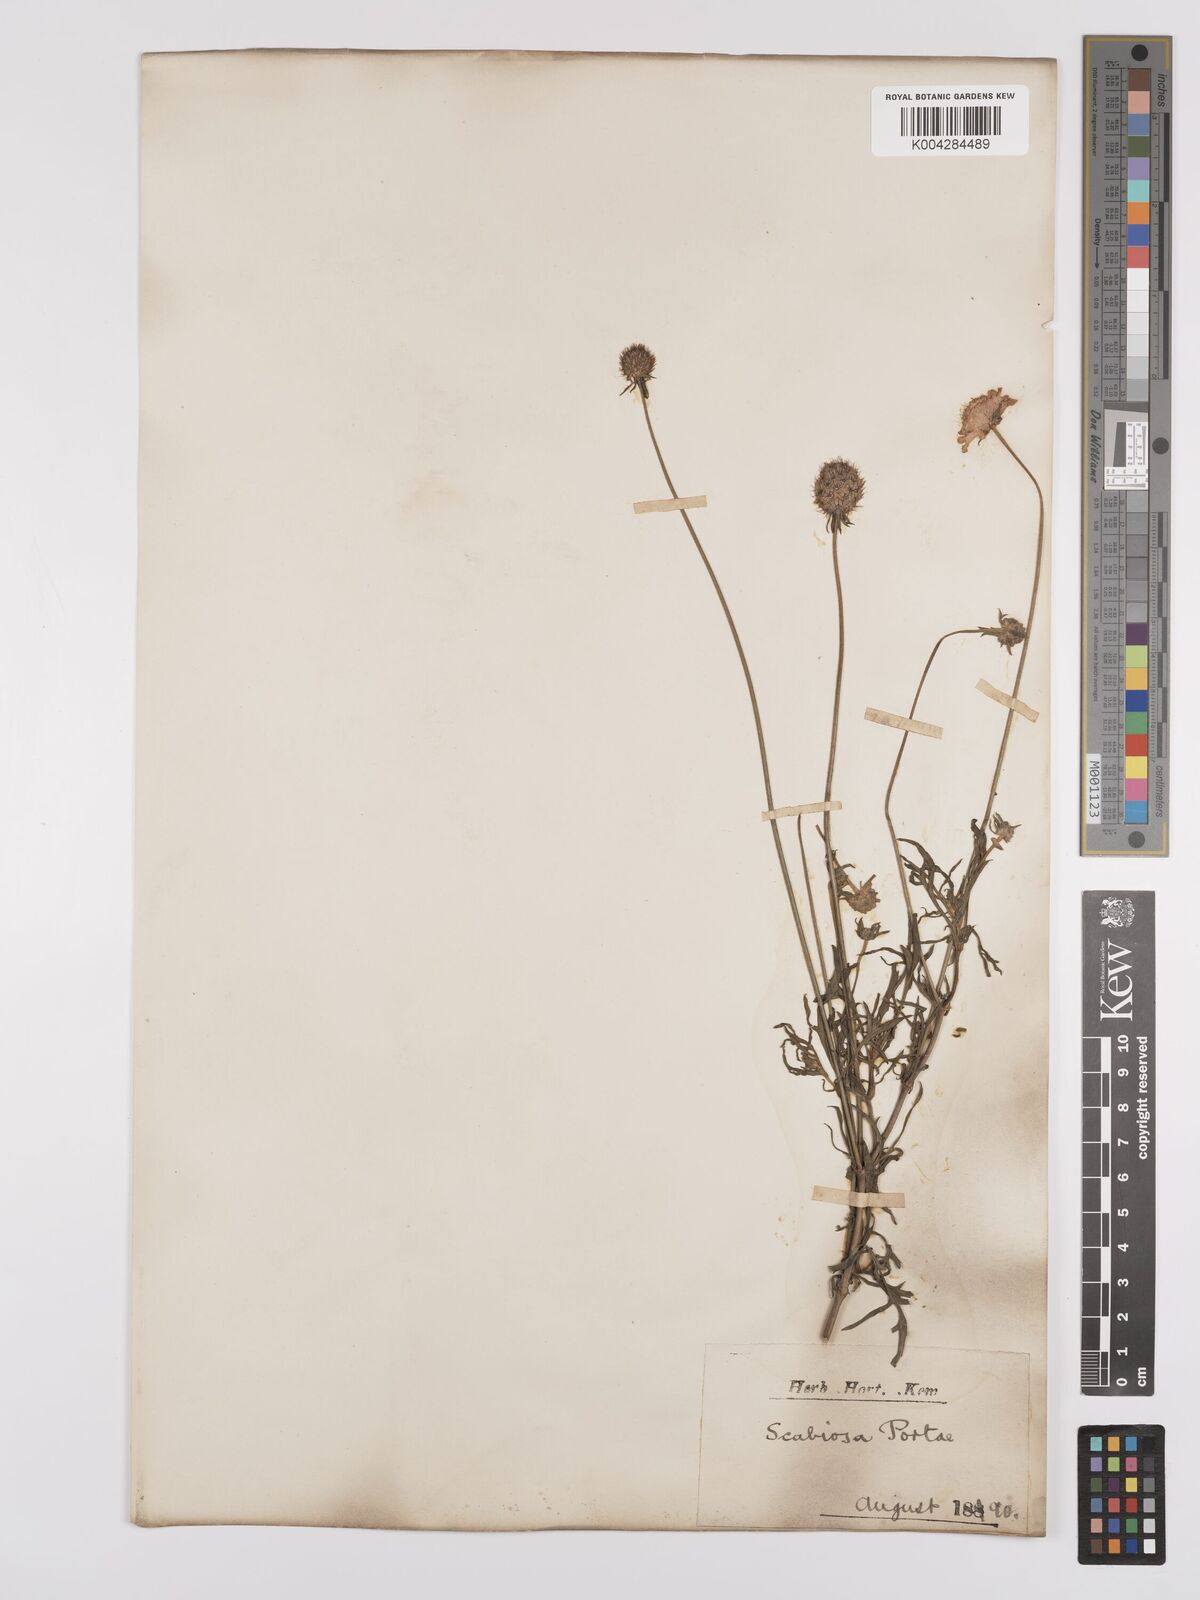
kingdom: Plantae
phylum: Tracheophyta
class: Magnoliopsida
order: Dipsacales
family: Caprifoliaceae
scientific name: Caprifoliaceae
